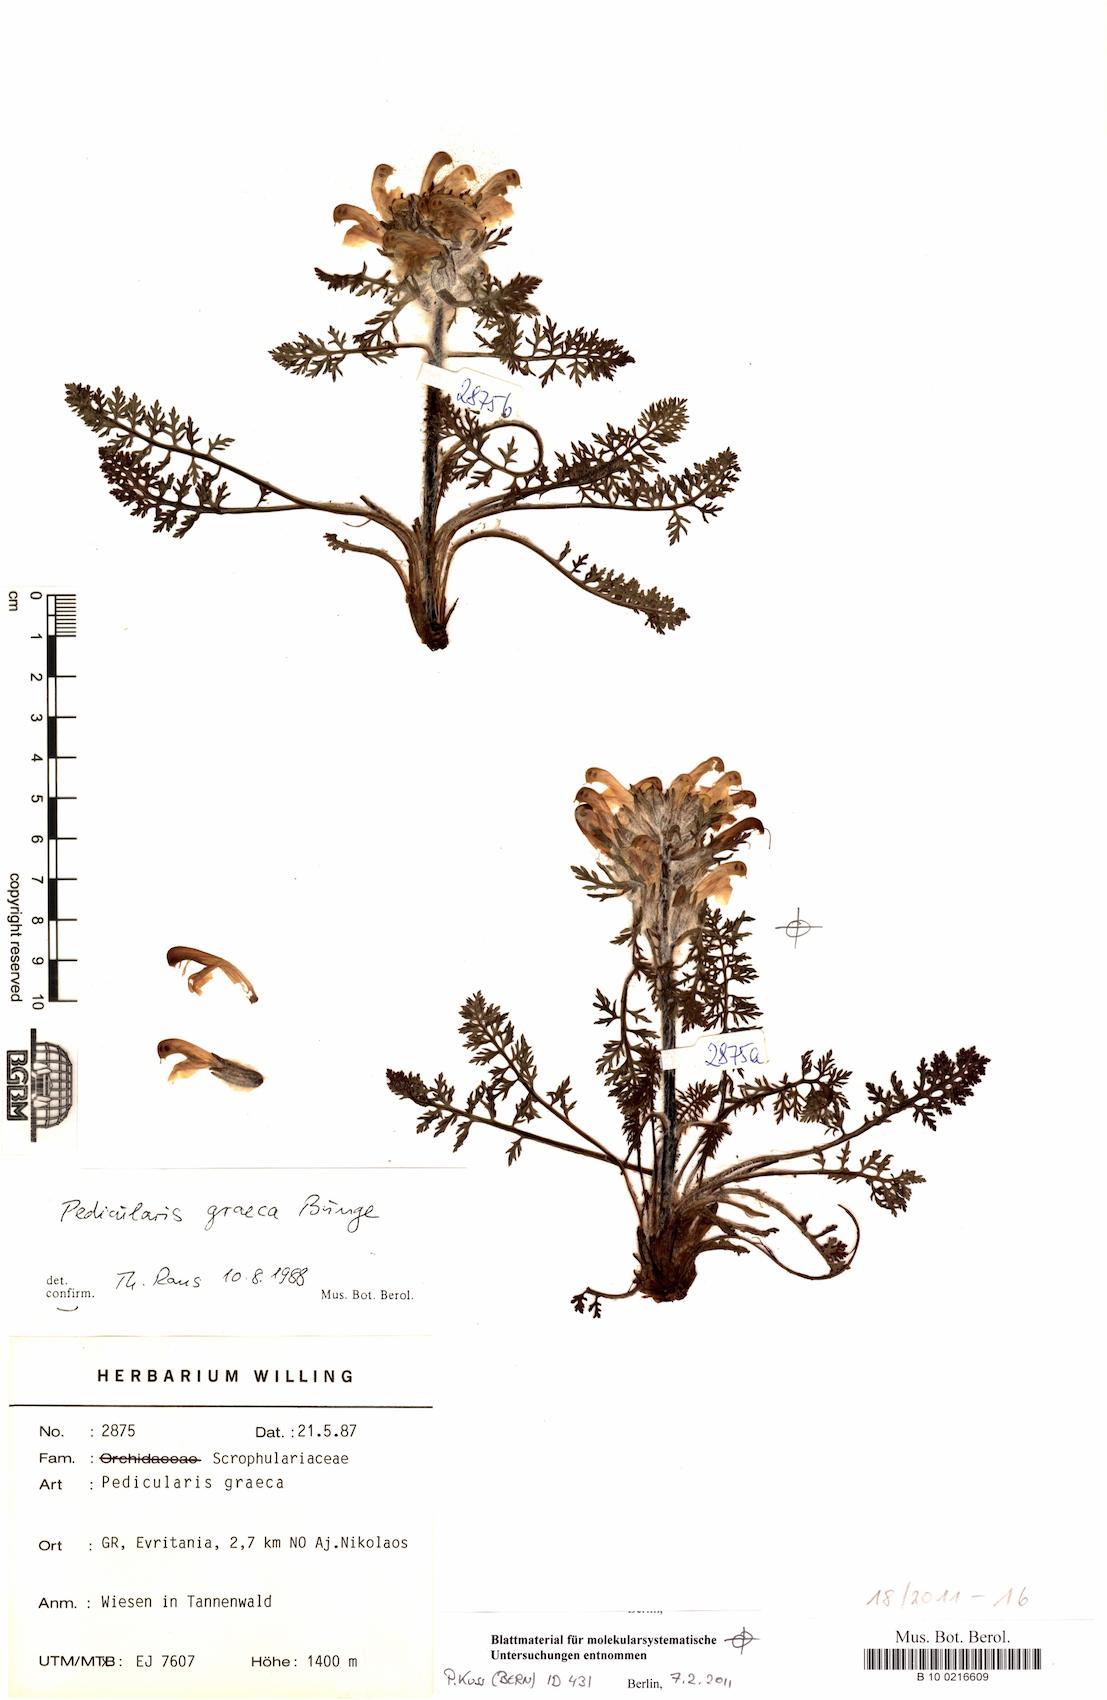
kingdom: Plantae
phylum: Tracheophyta
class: Magnoliopsida
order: Lamiales
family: Orobanchaceae
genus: Pedicularis
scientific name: Pedicularis graeca
